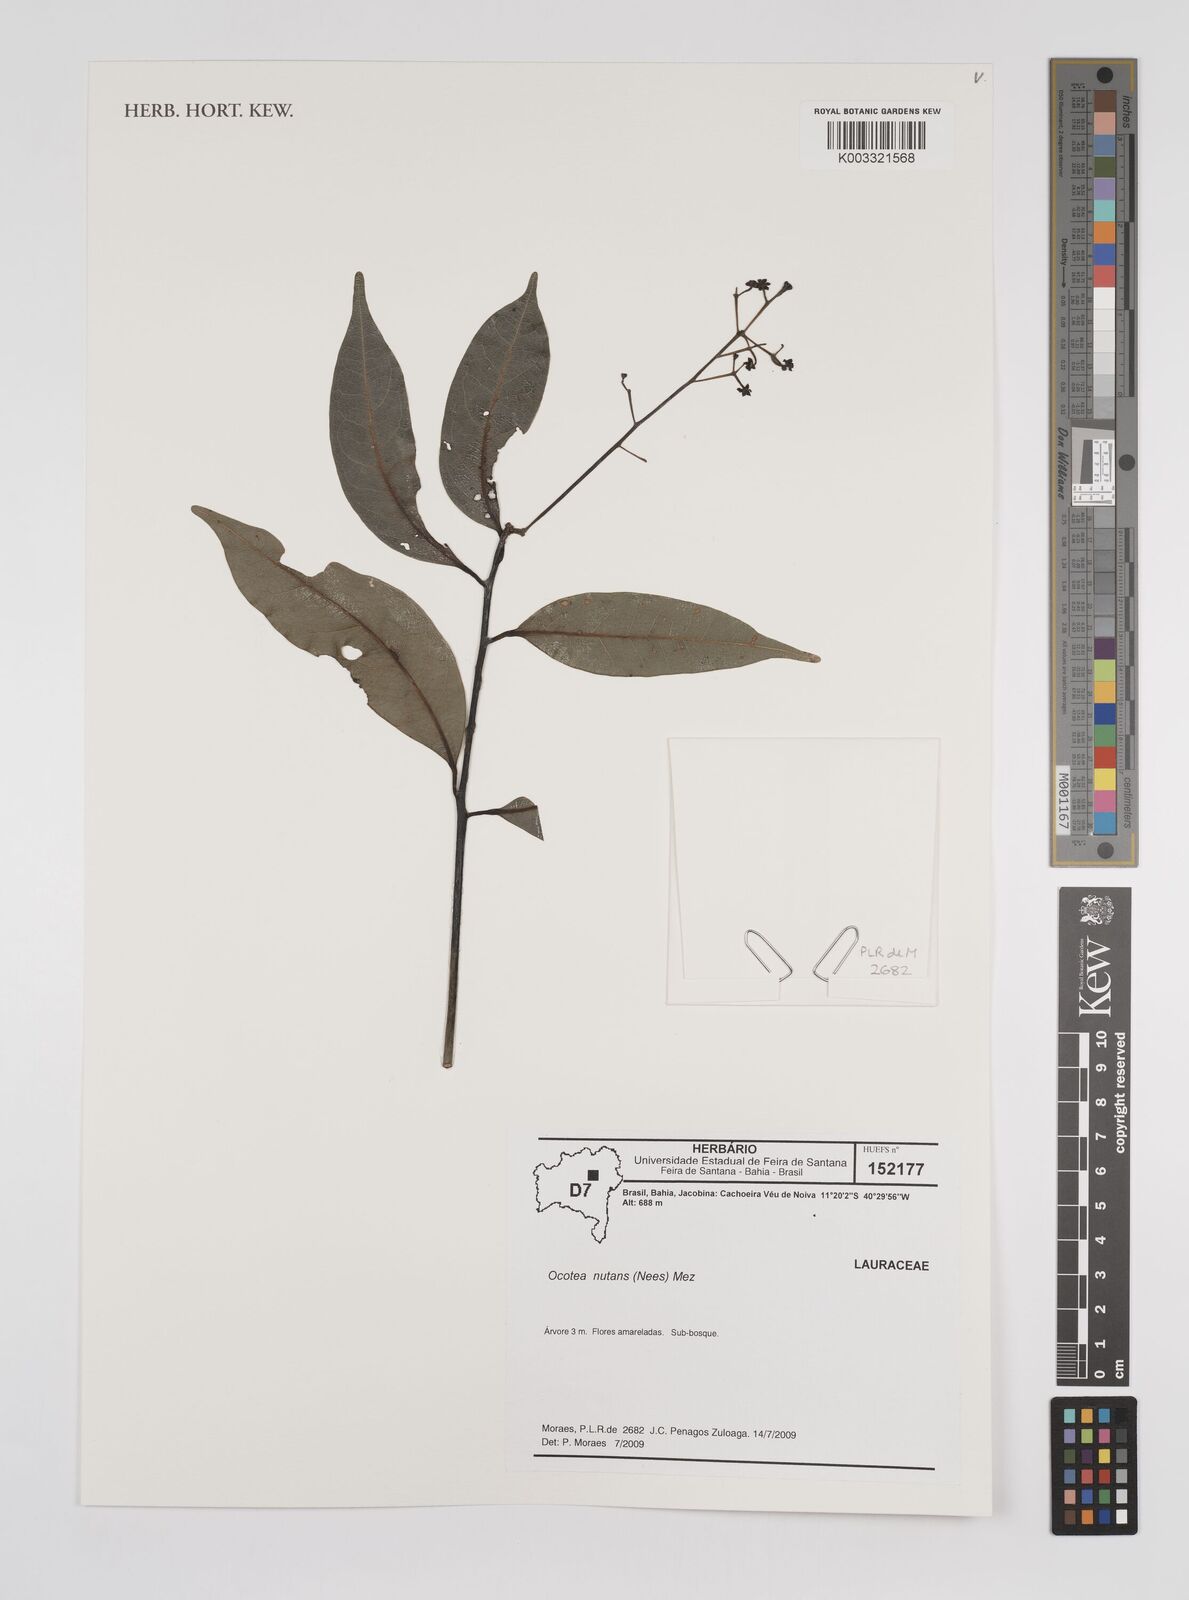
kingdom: Plantae
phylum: Tracheophyta
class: Magnoliopsida
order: Laurales
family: Lauraceae
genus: Mespilodaphne
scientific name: Mespilodaphne nutans
